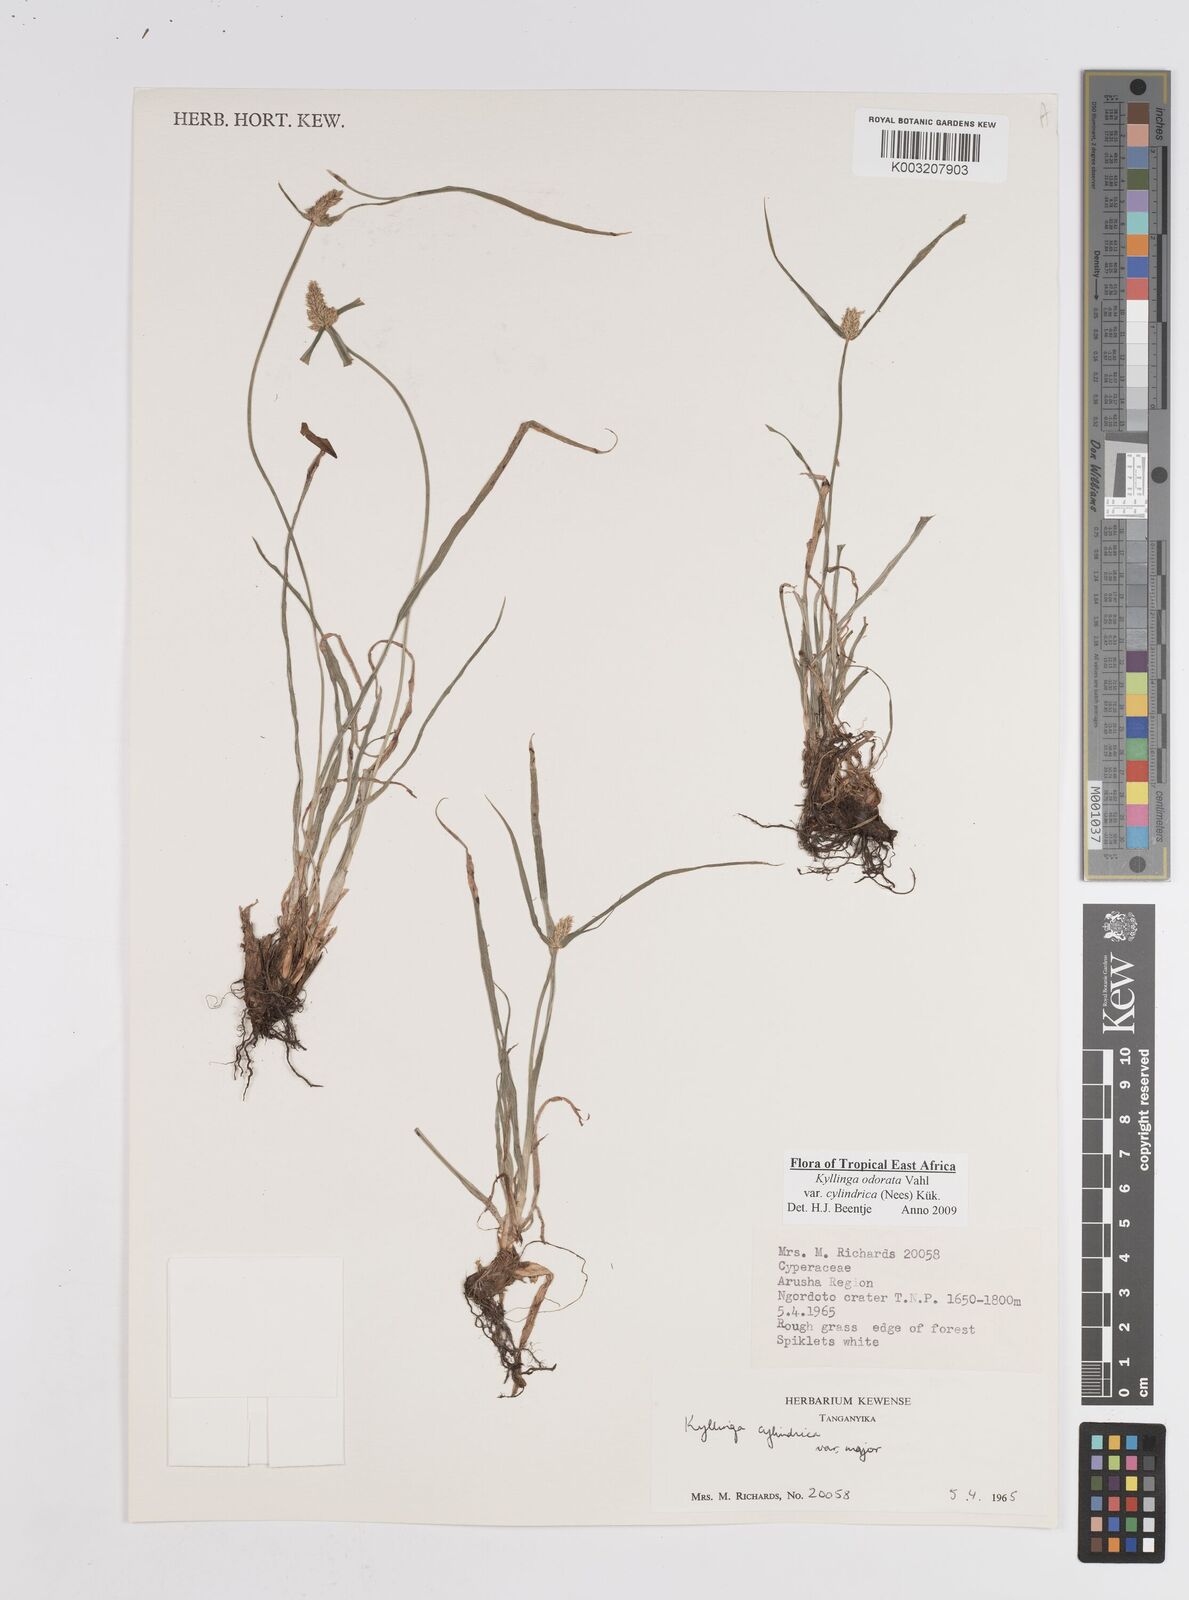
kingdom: Plantae
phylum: Tracheophyta
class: Liliopsida
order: Poales
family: Cyperaceae
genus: Cyperus
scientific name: Cyperus
